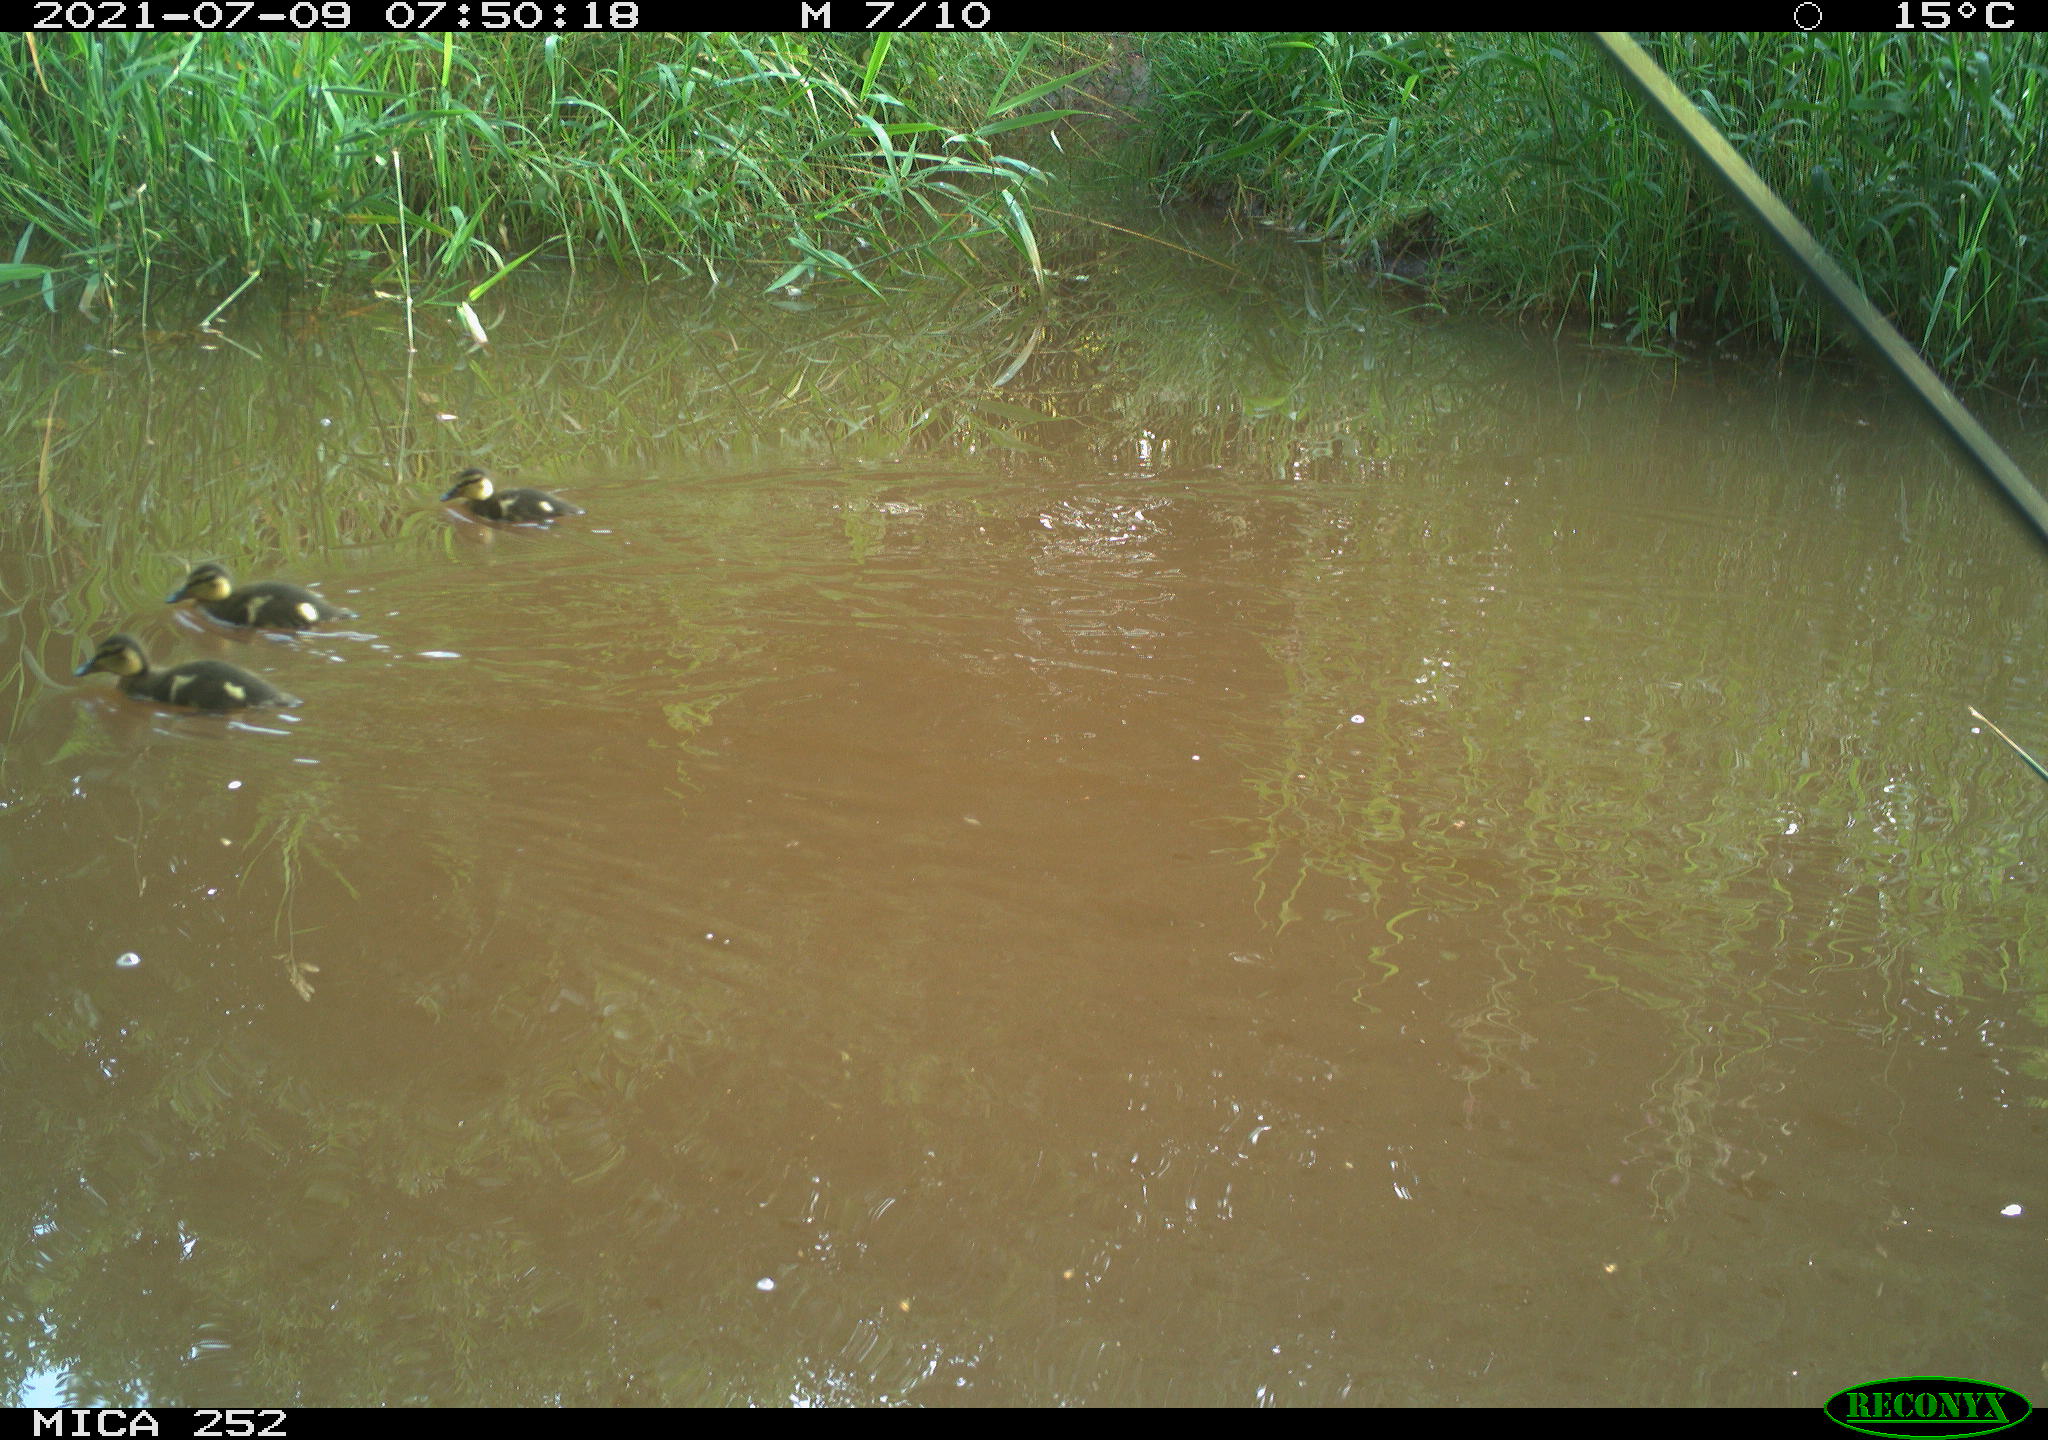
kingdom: Animalia
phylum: Chordata
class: Aves
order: Anseriformes
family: Anatidae
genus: Anas
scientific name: Anas
